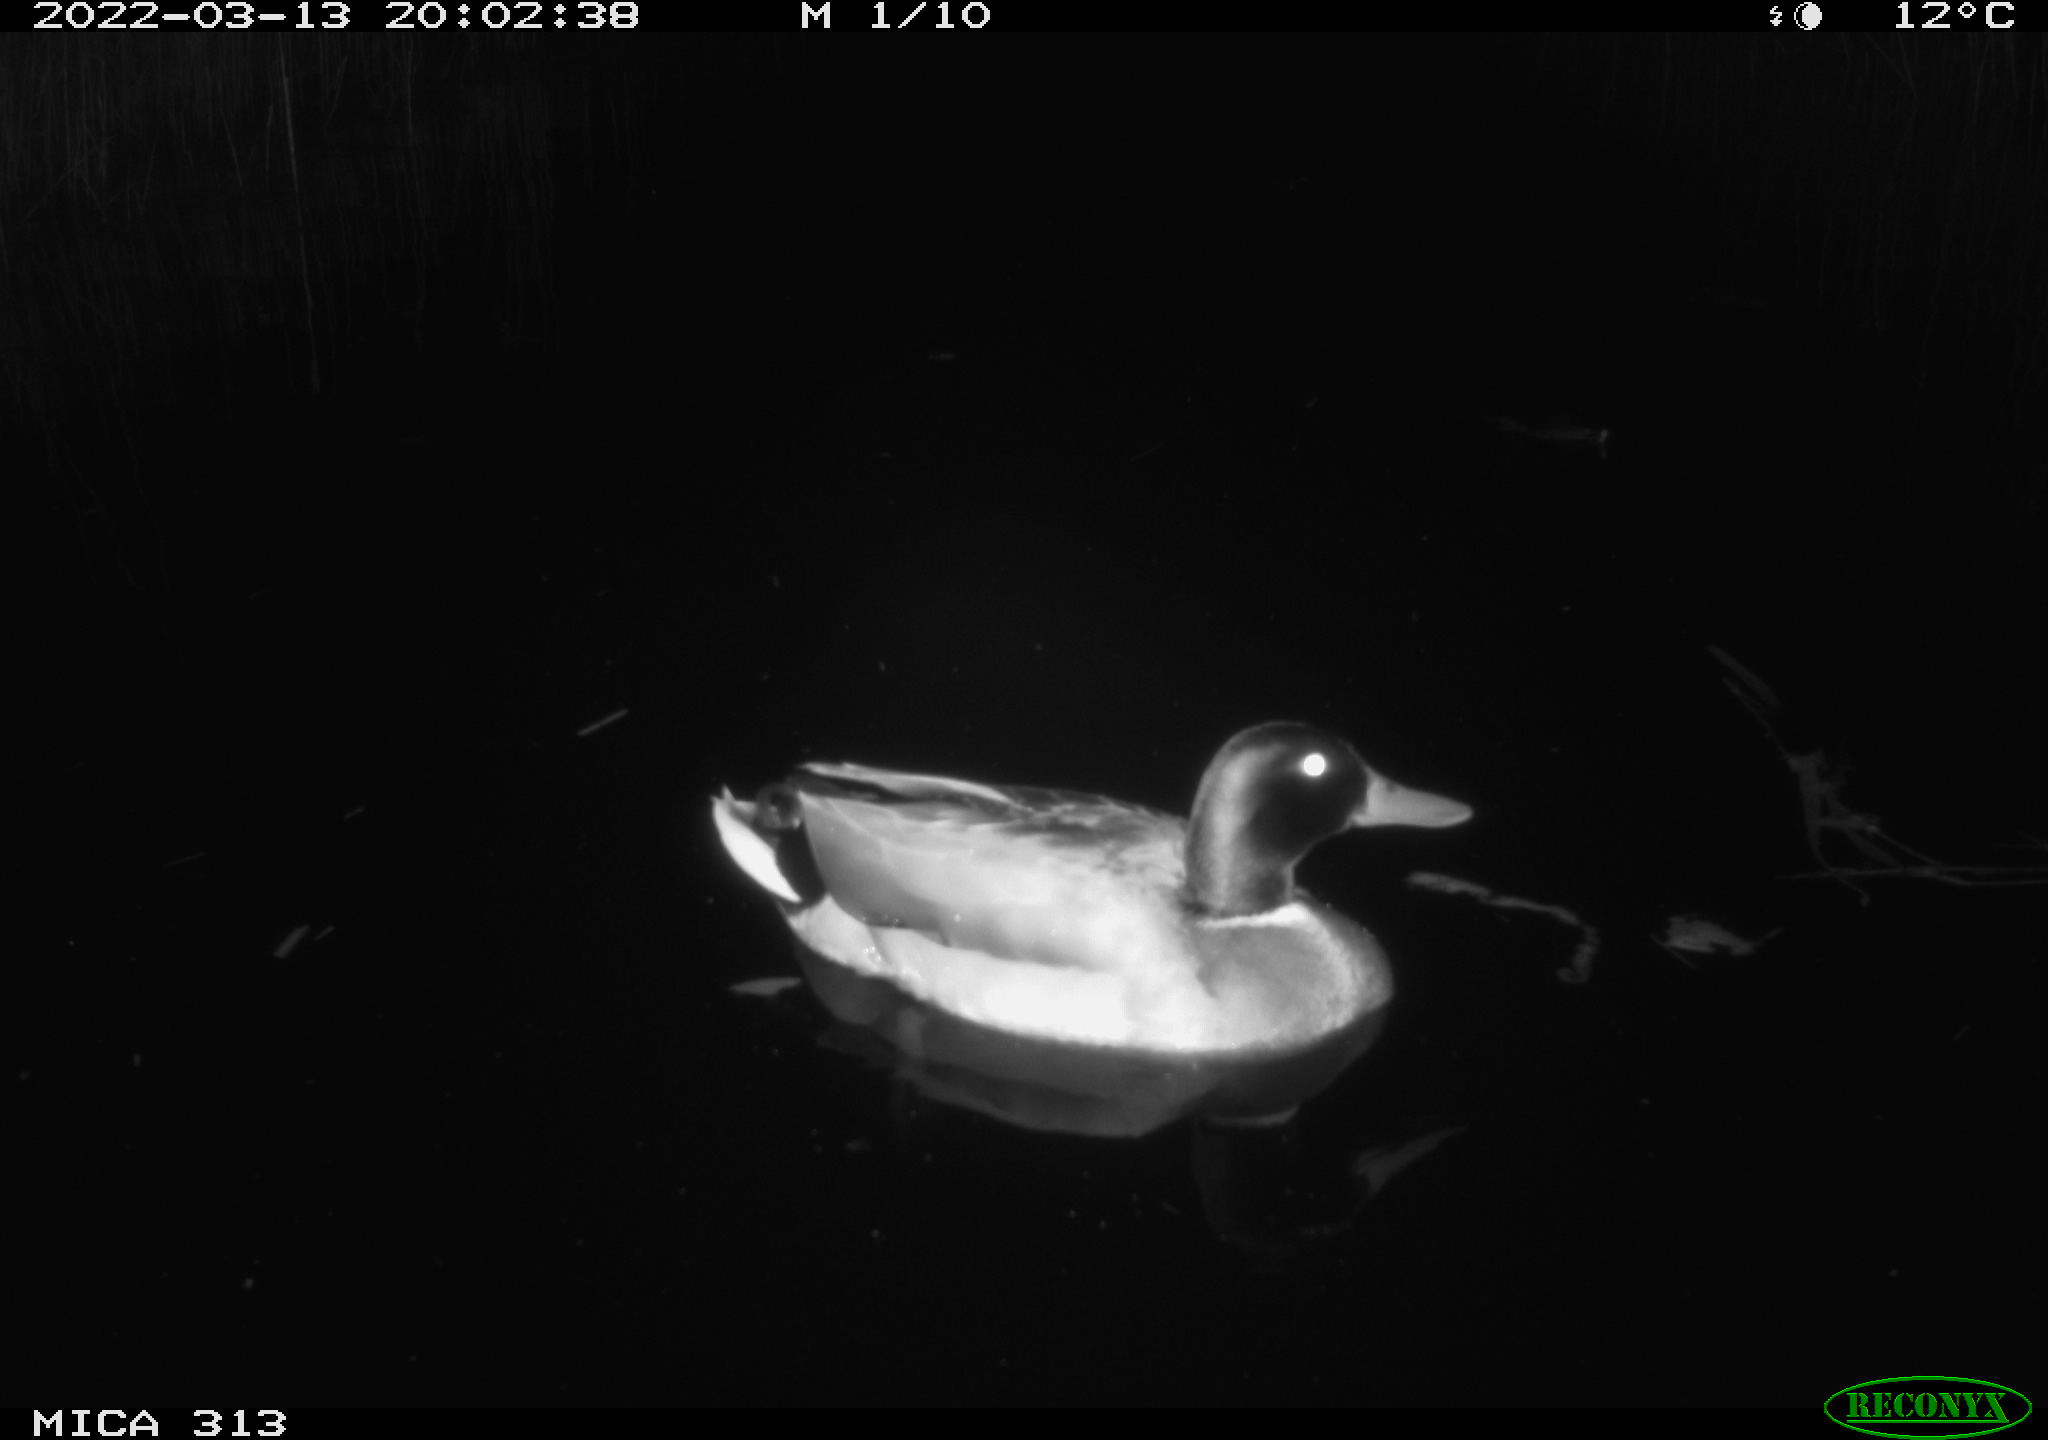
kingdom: Animalia
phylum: Chordata
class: Aves
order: Anseriformes
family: Anatidae
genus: Anas
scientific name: Anas platyrhynchos
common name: Mallard
